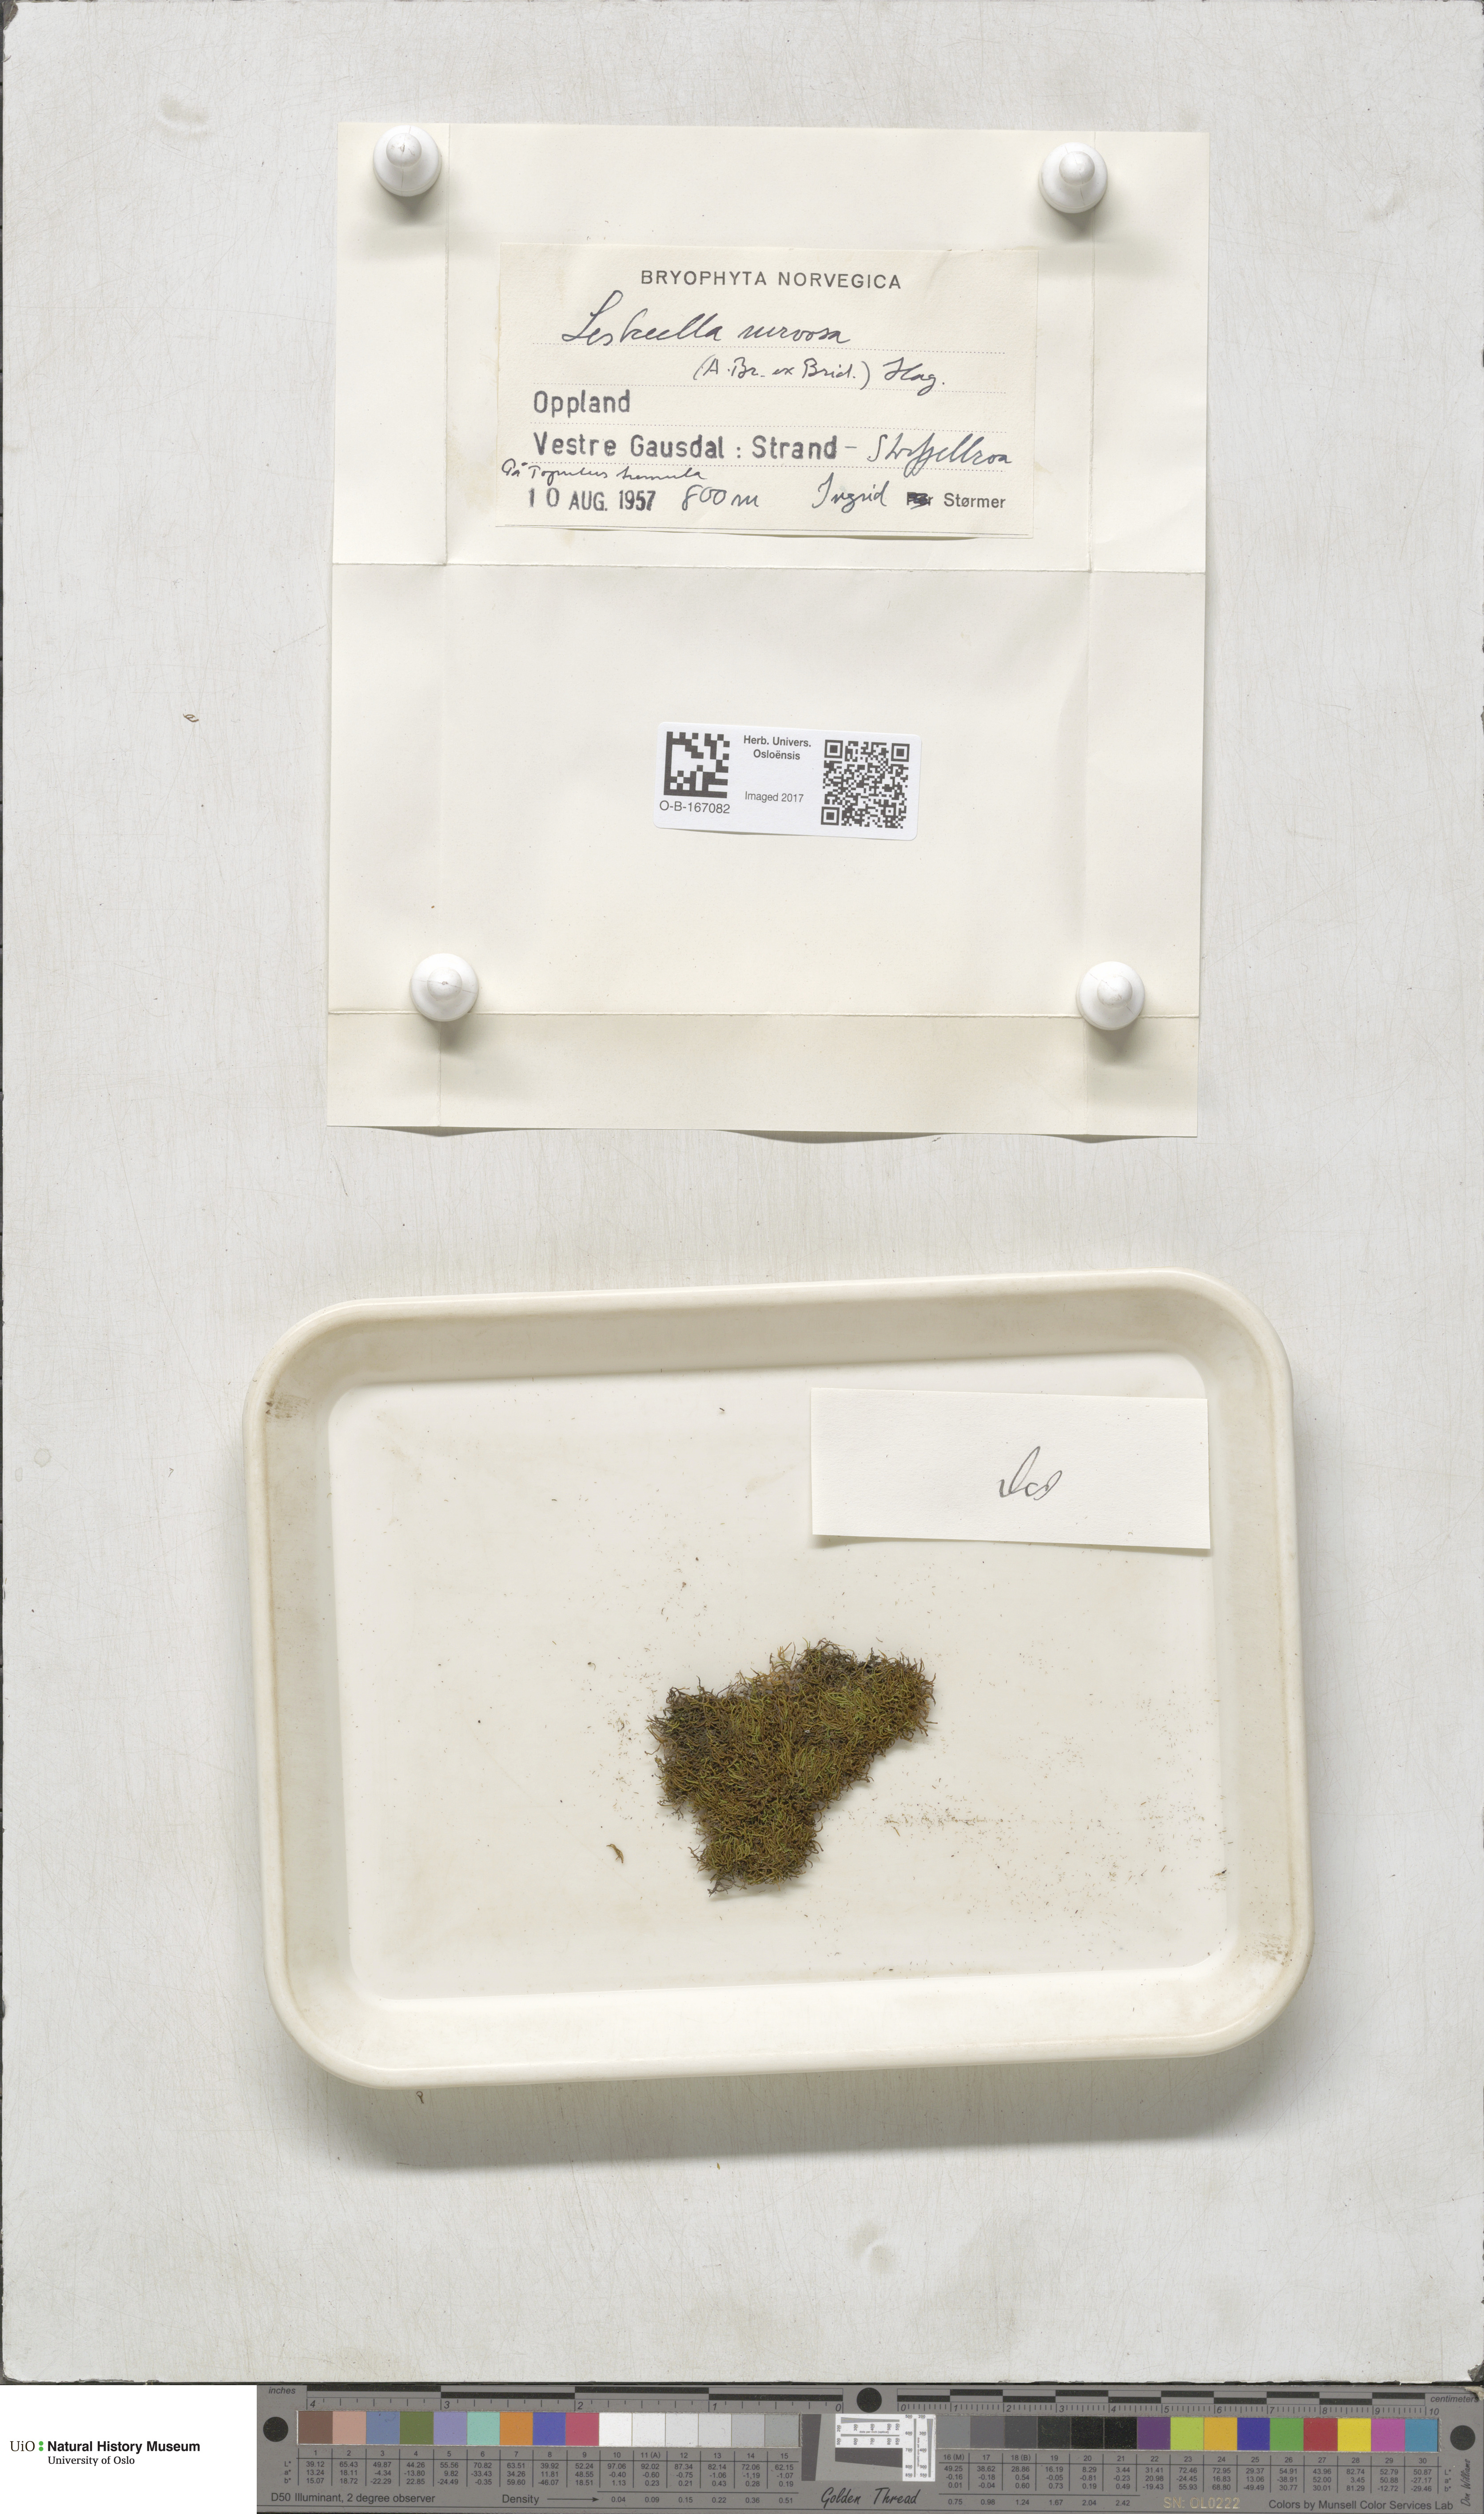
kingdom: Plantae
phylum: Bryophyta
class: Bryopsida
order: Hypnales
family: Pseudoleskeellaceae
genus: Pseudoleskeella
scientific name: Pseudoleskeella nervosa
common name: Nerved leske's moss
